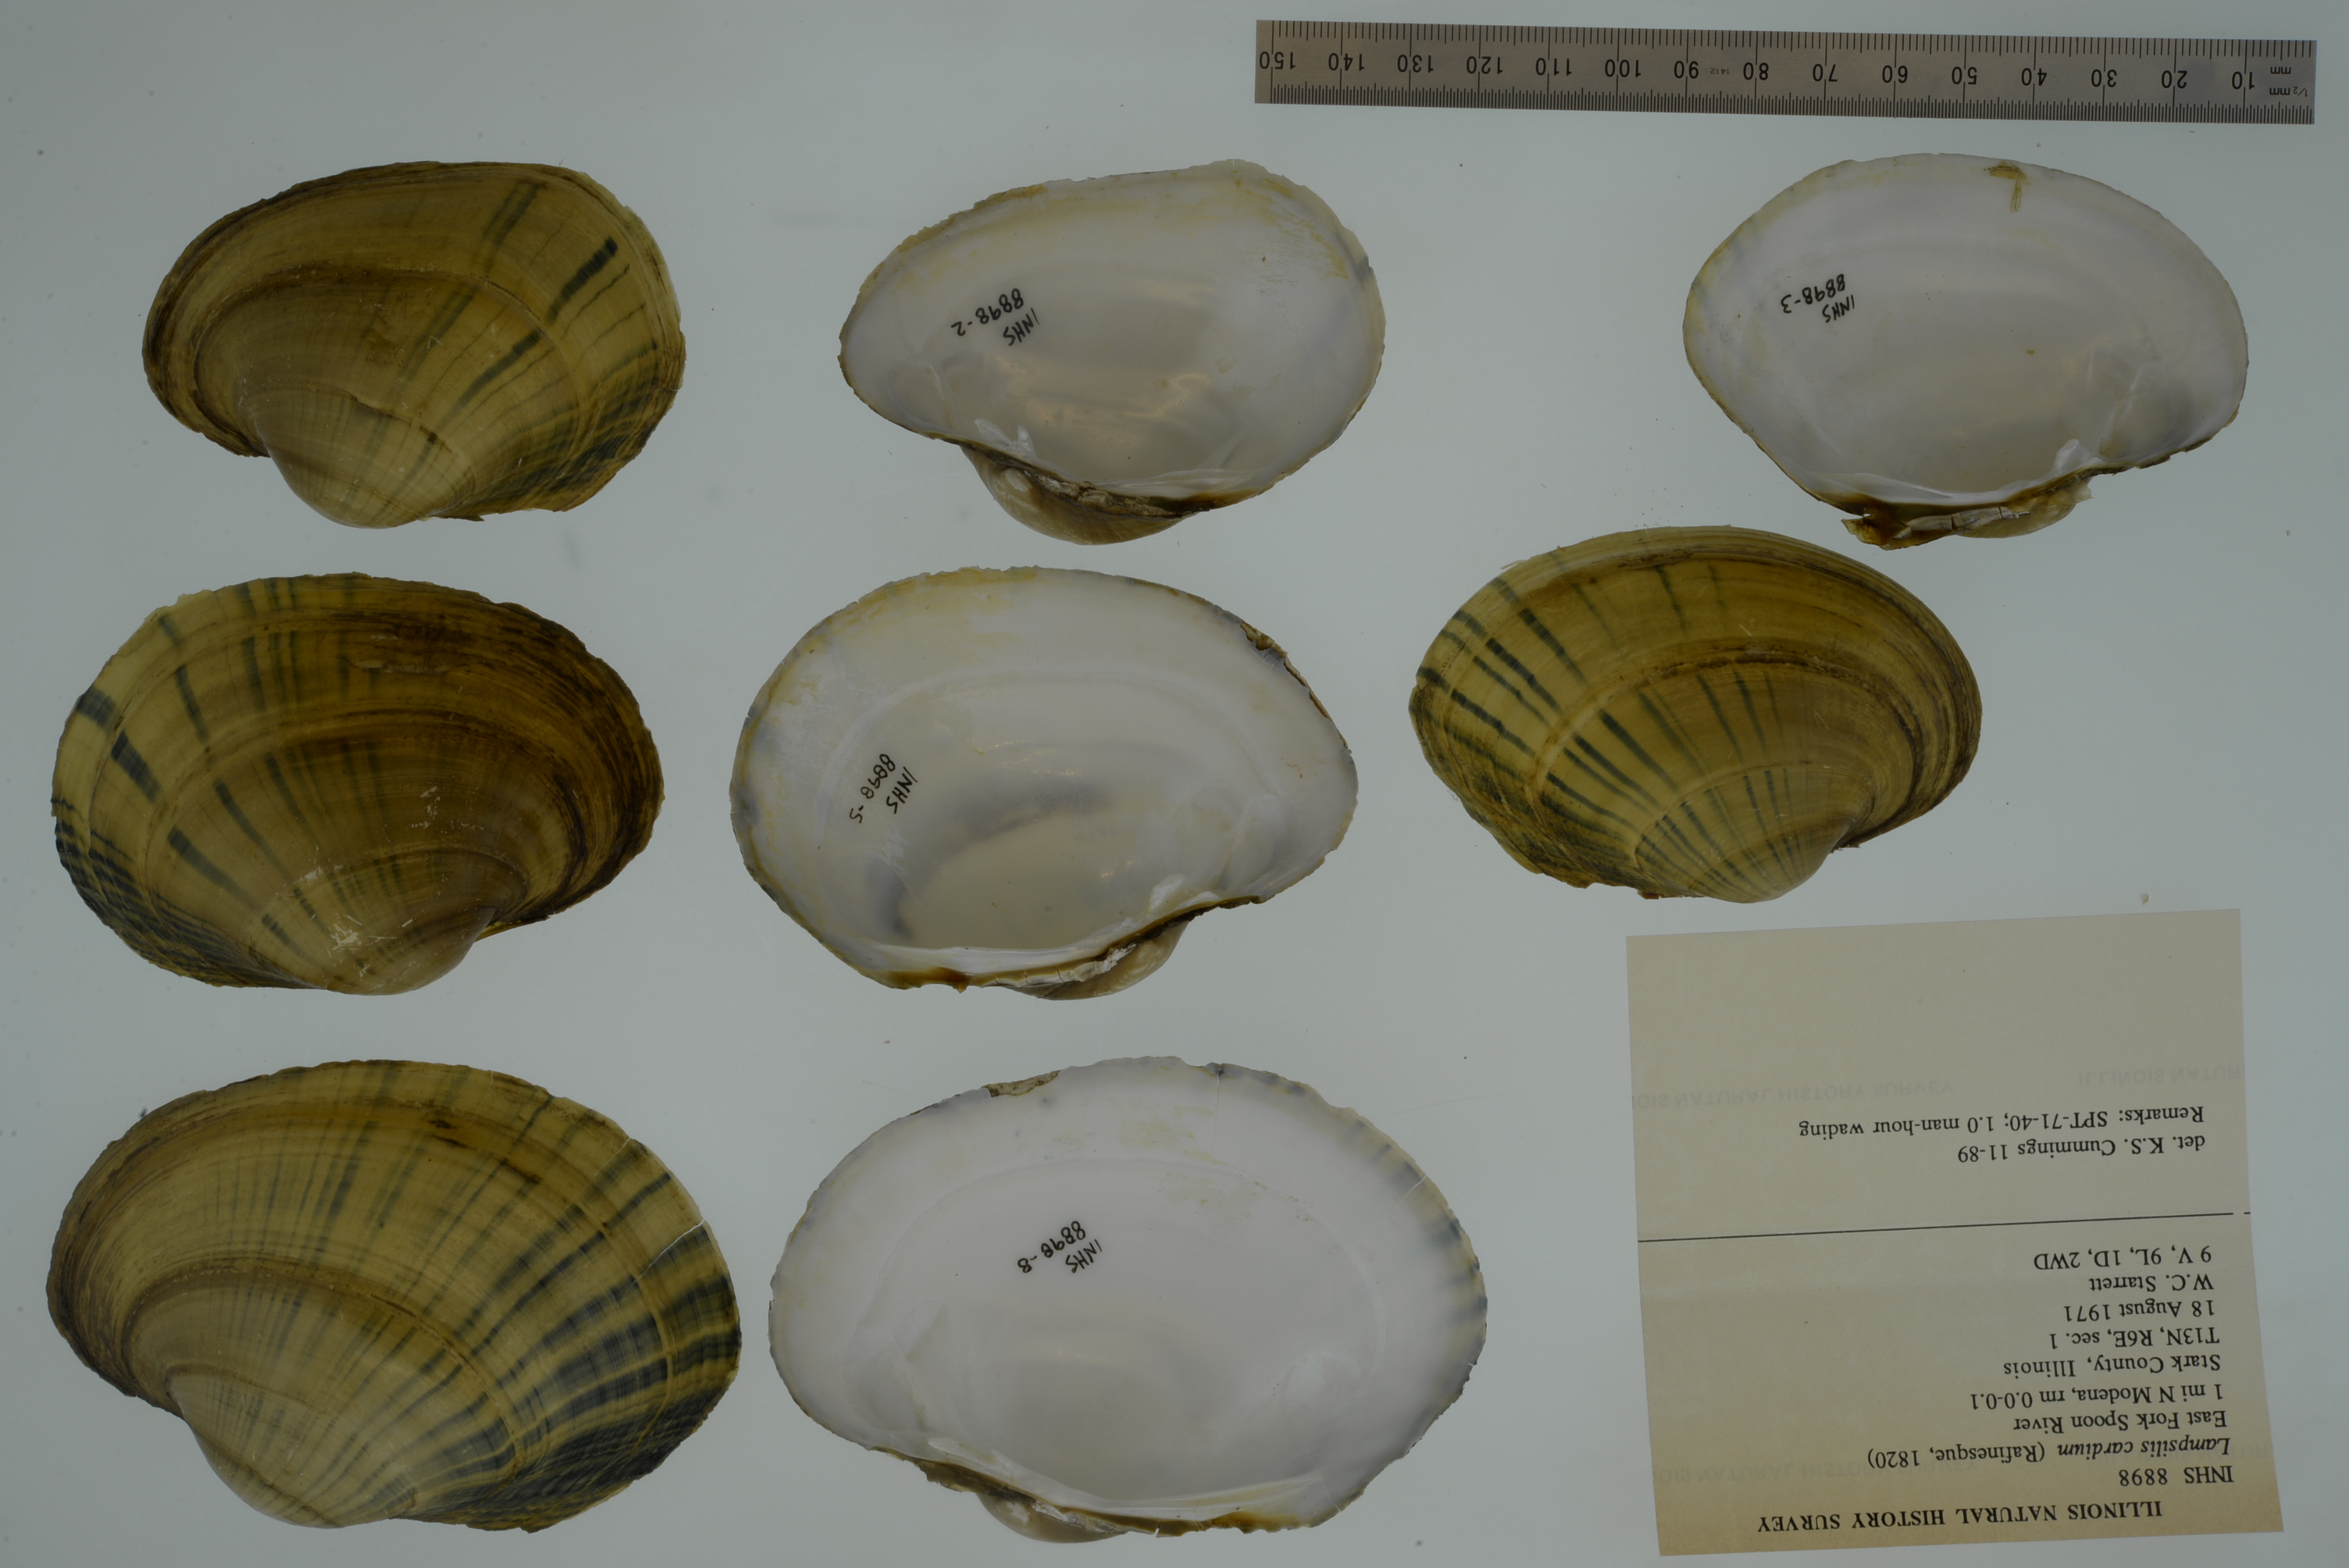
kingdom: Animalia
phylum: Mollusca
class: Bivalvia
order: Unionida
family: Unionidae
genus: Lampsilis
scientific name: Lampsilis cardium
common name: Plain pocketbook
